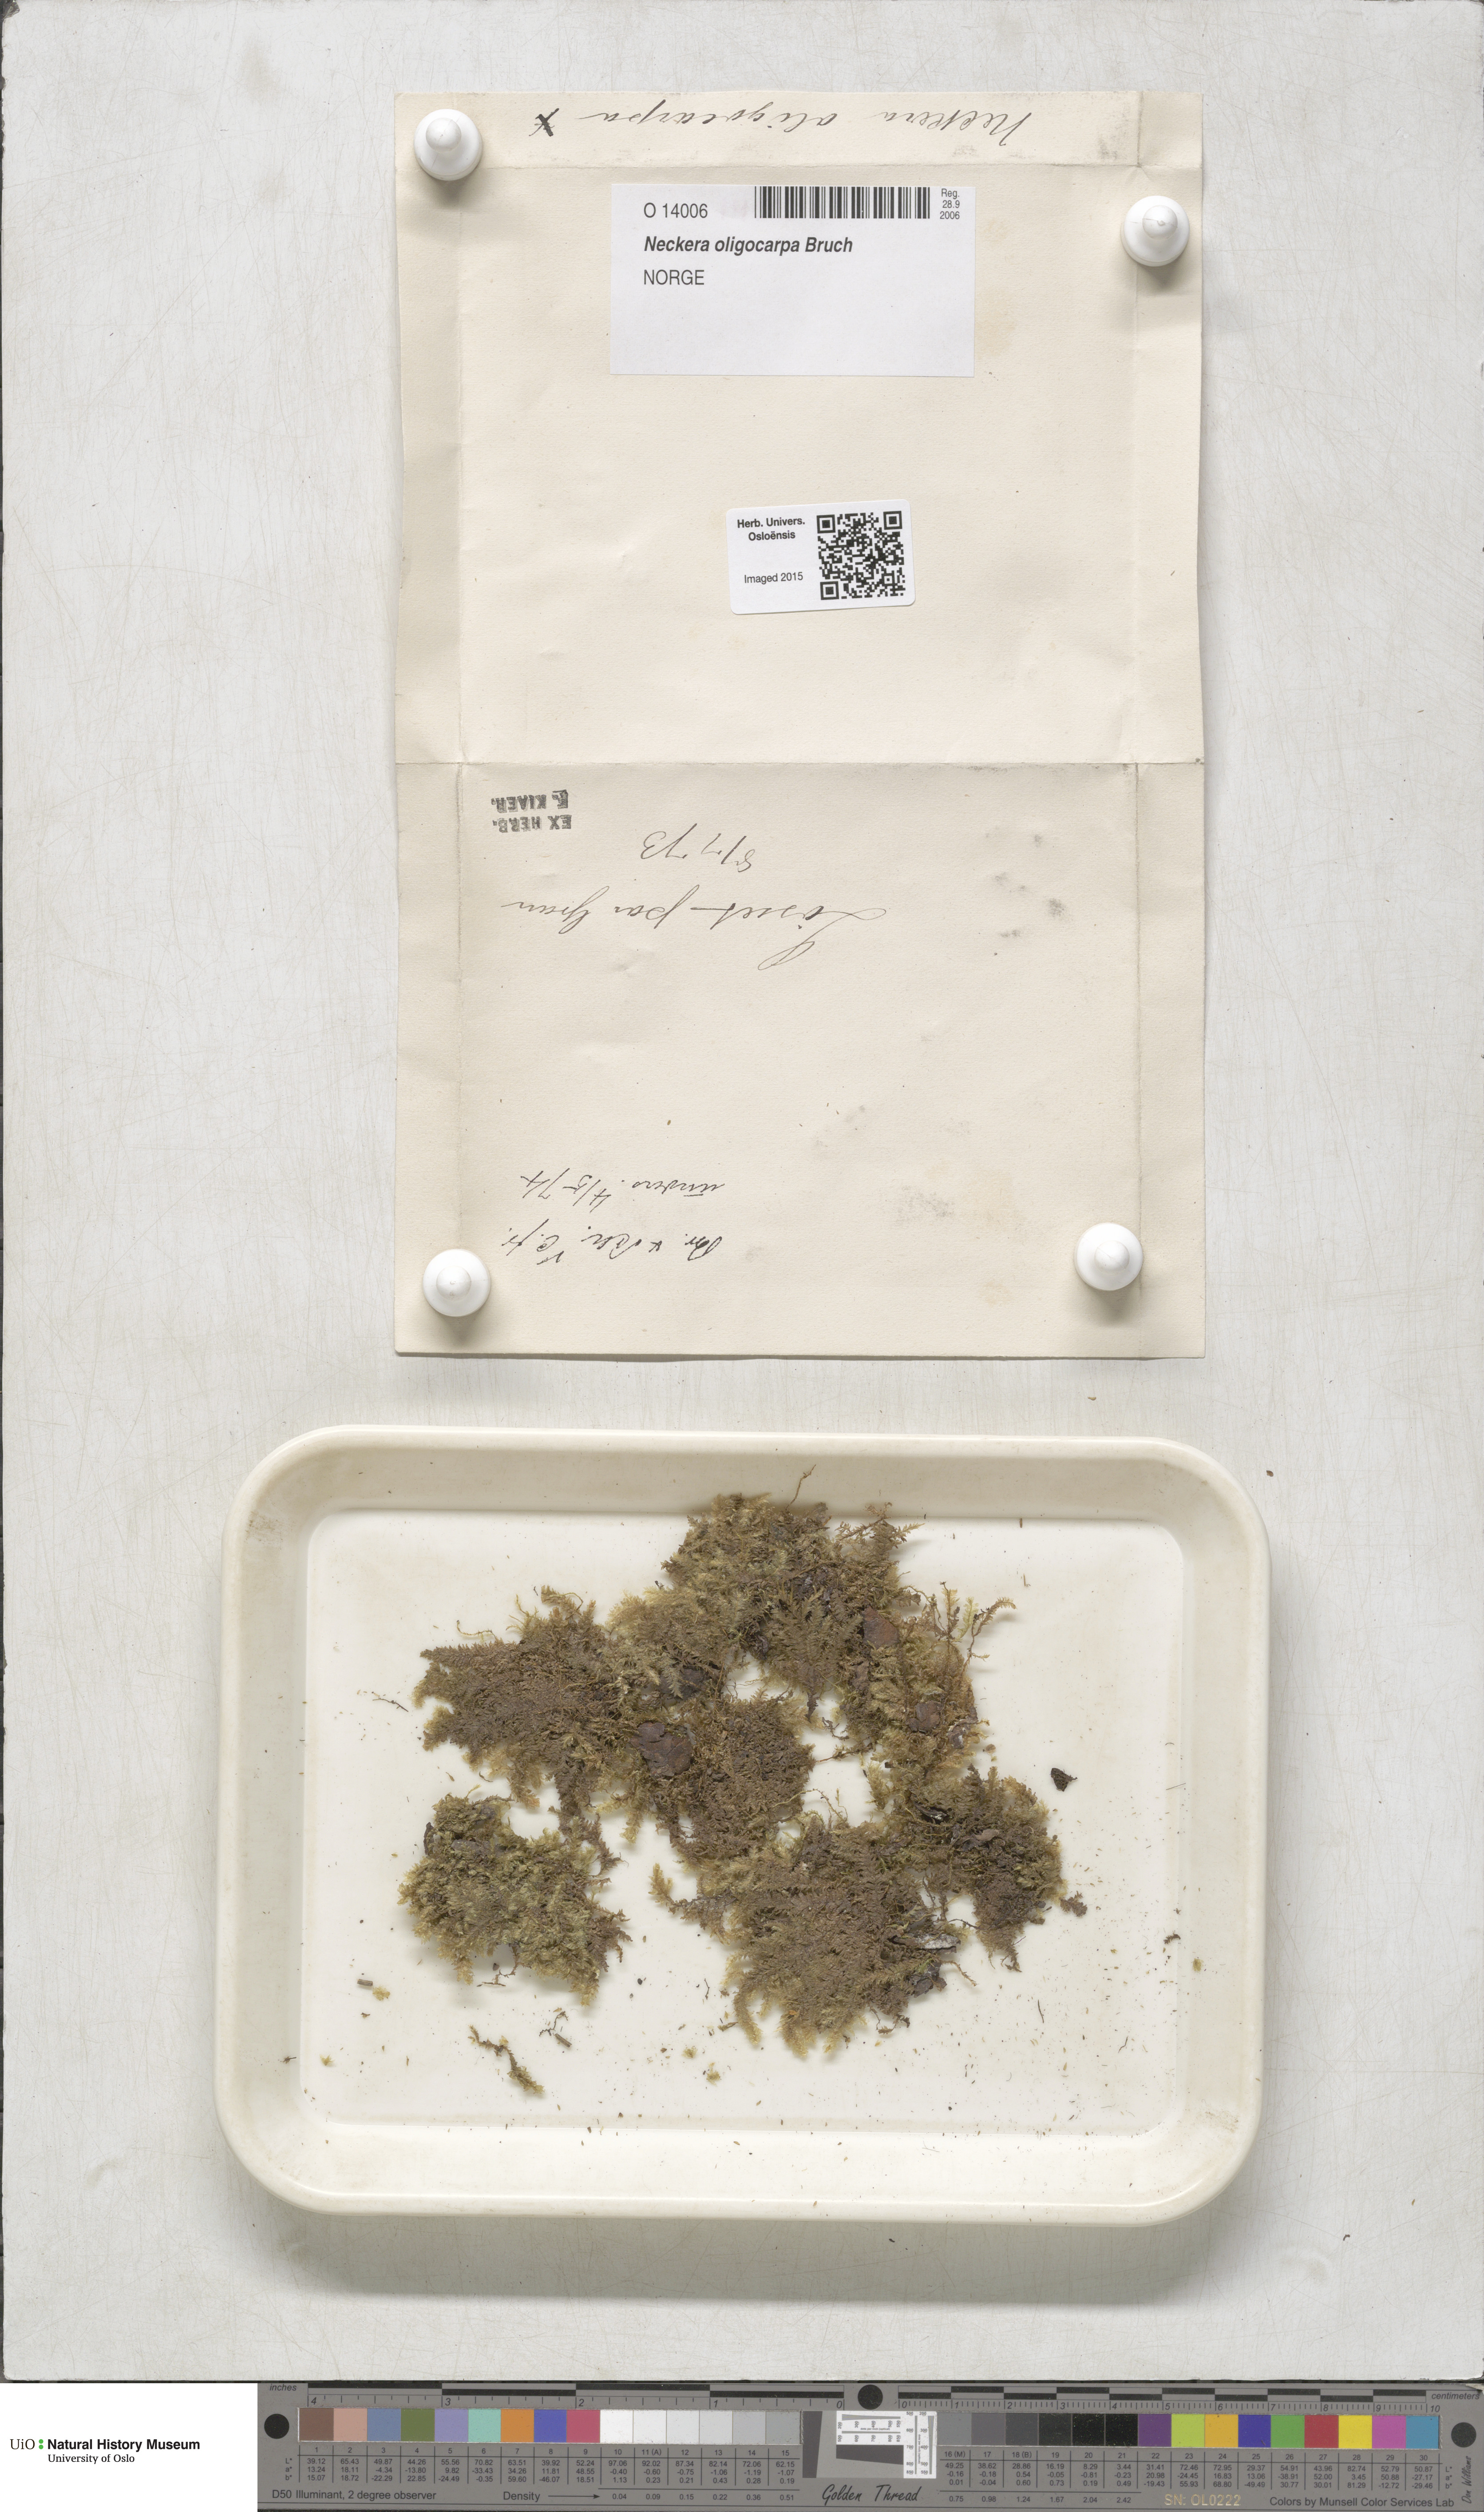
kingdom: Plantae
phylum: Bryophyta
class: Bryopsida
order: Hypnales
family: Neckeraceae
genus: Neckera
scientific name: Neckera oligocarpa
